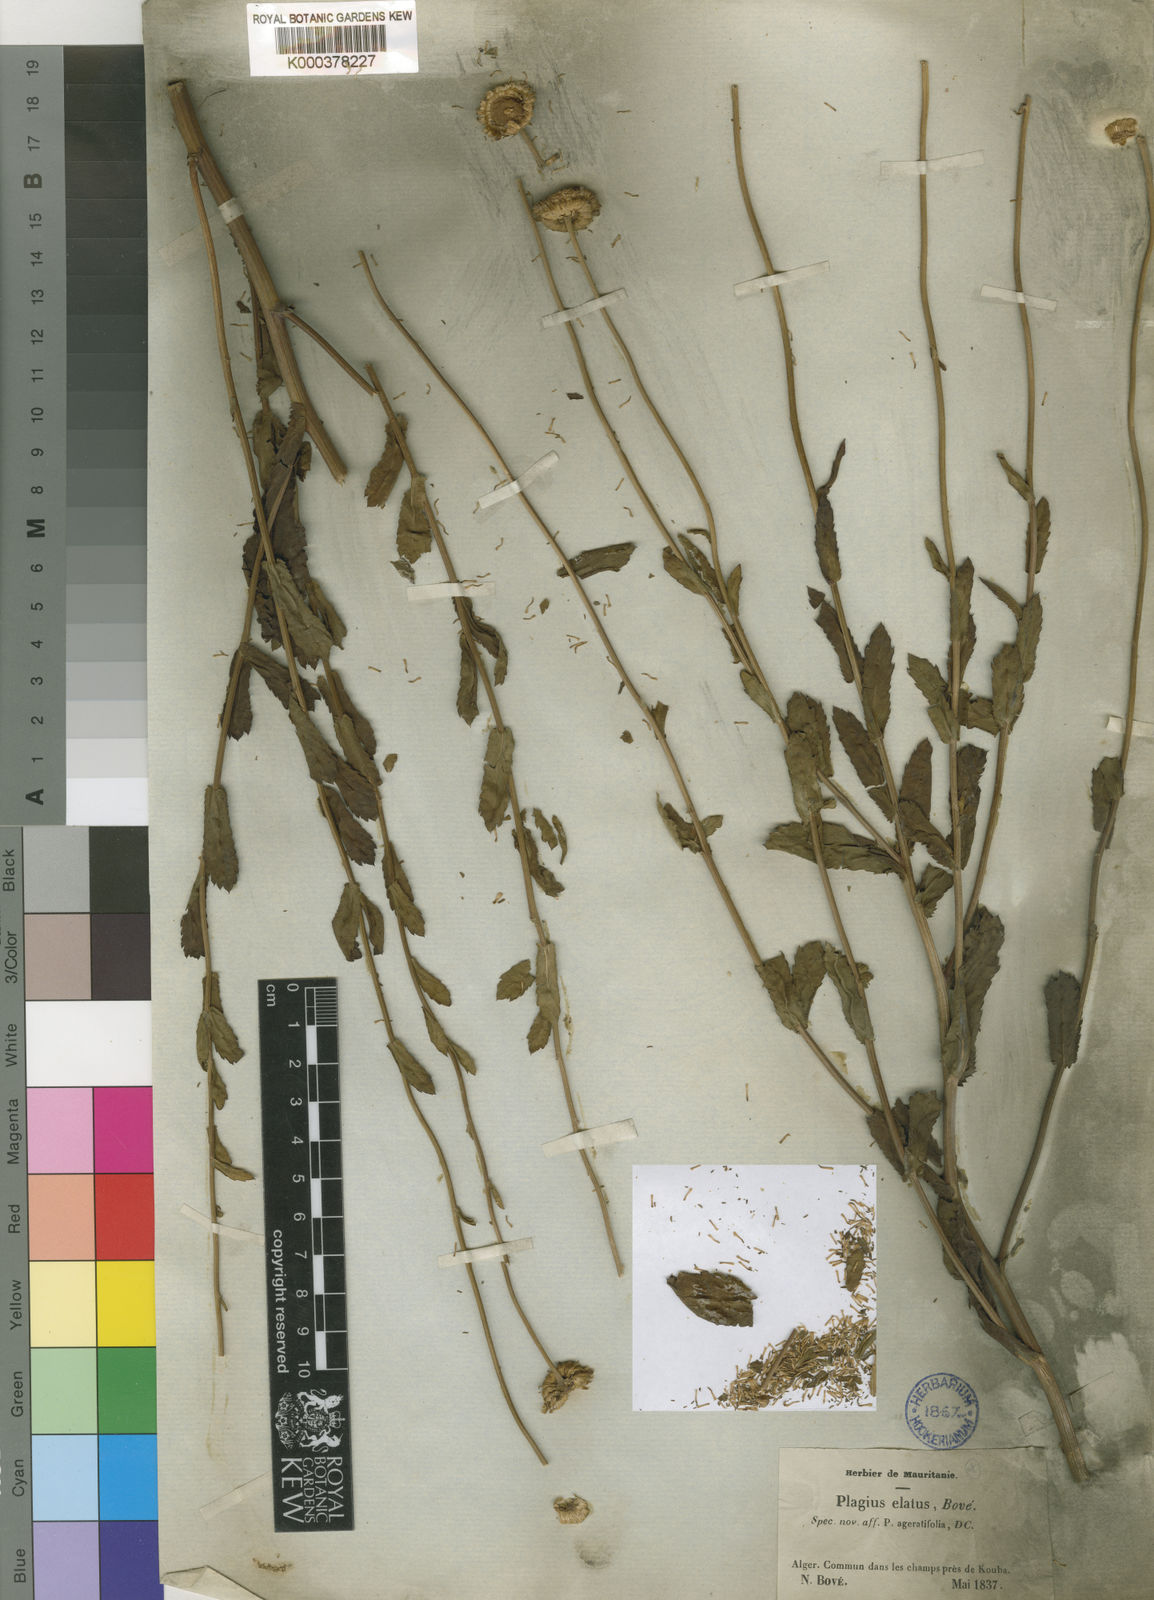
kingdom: Plantae
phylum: Tracheophyta
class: Magnoliopsida
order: Asterales
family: Asteraceae
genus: Plagius
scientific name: Plagius
